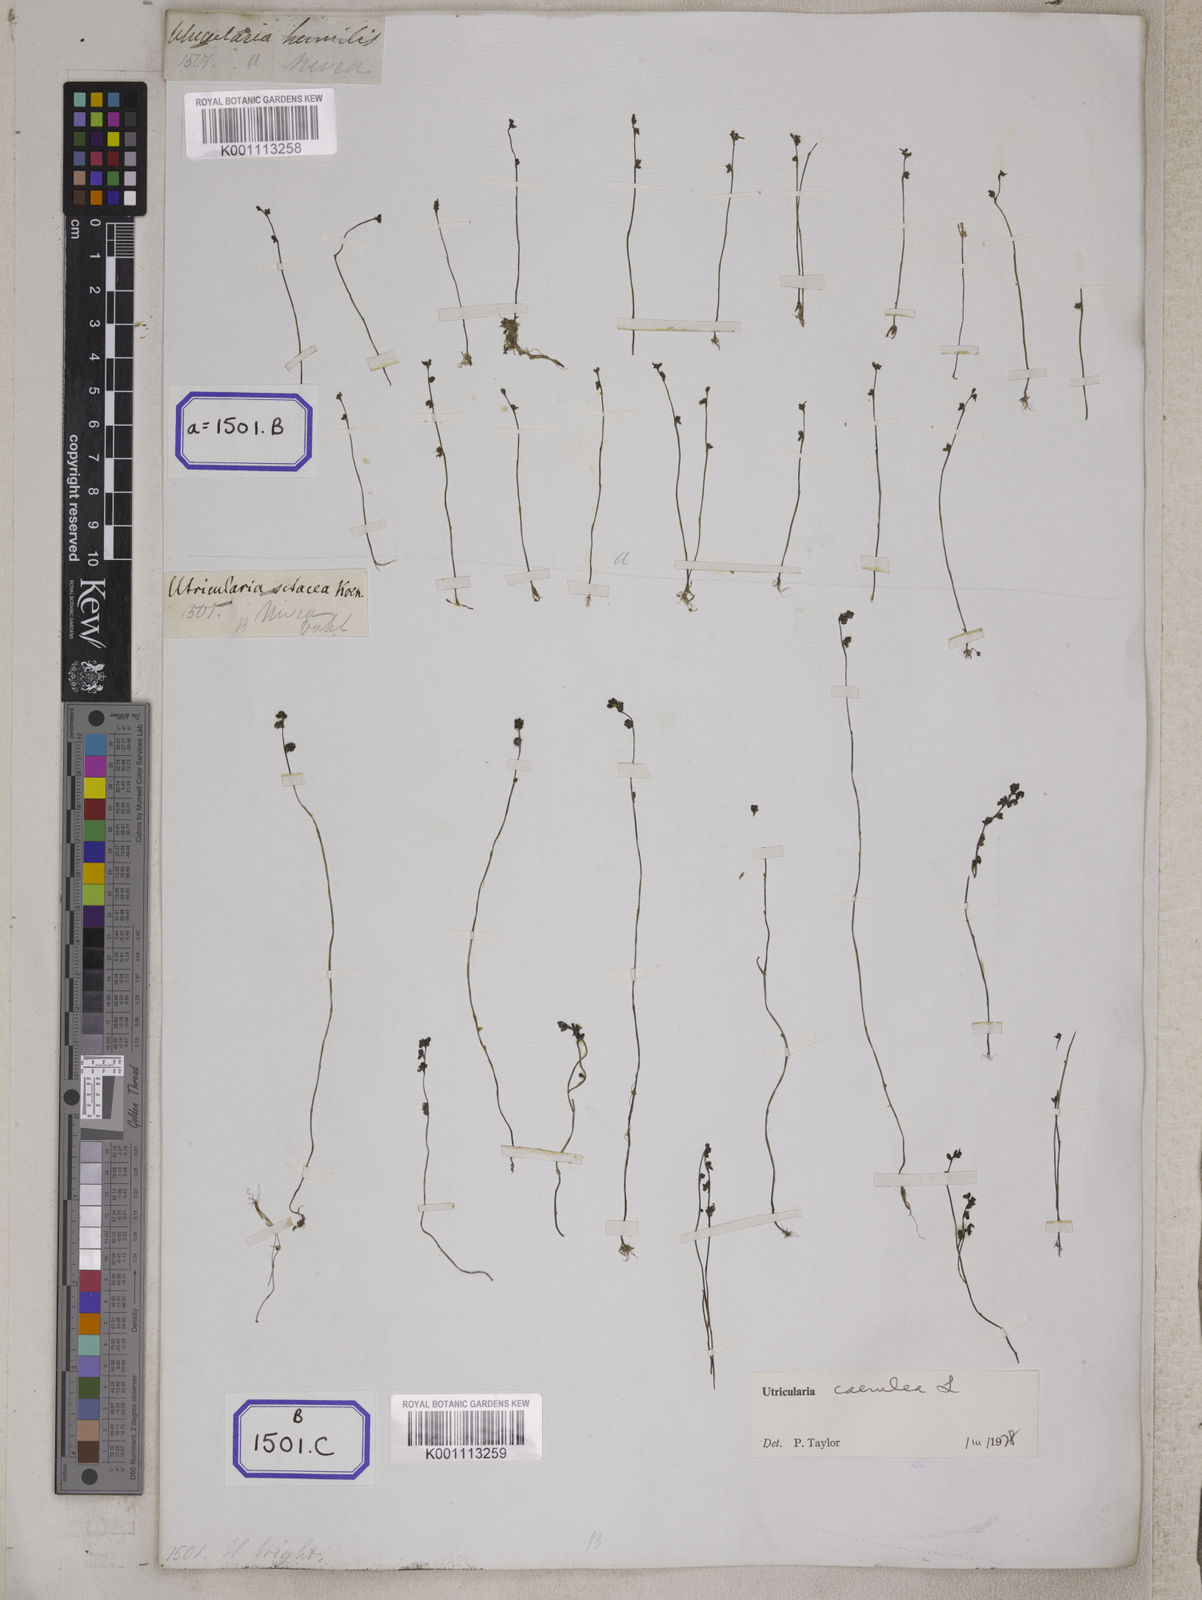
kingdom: Plantae
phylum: Tracheophyta
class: Magnoliopsida
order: Lamiales
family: Lentibulariaceae
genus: Utricularia
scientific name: Utricularia
